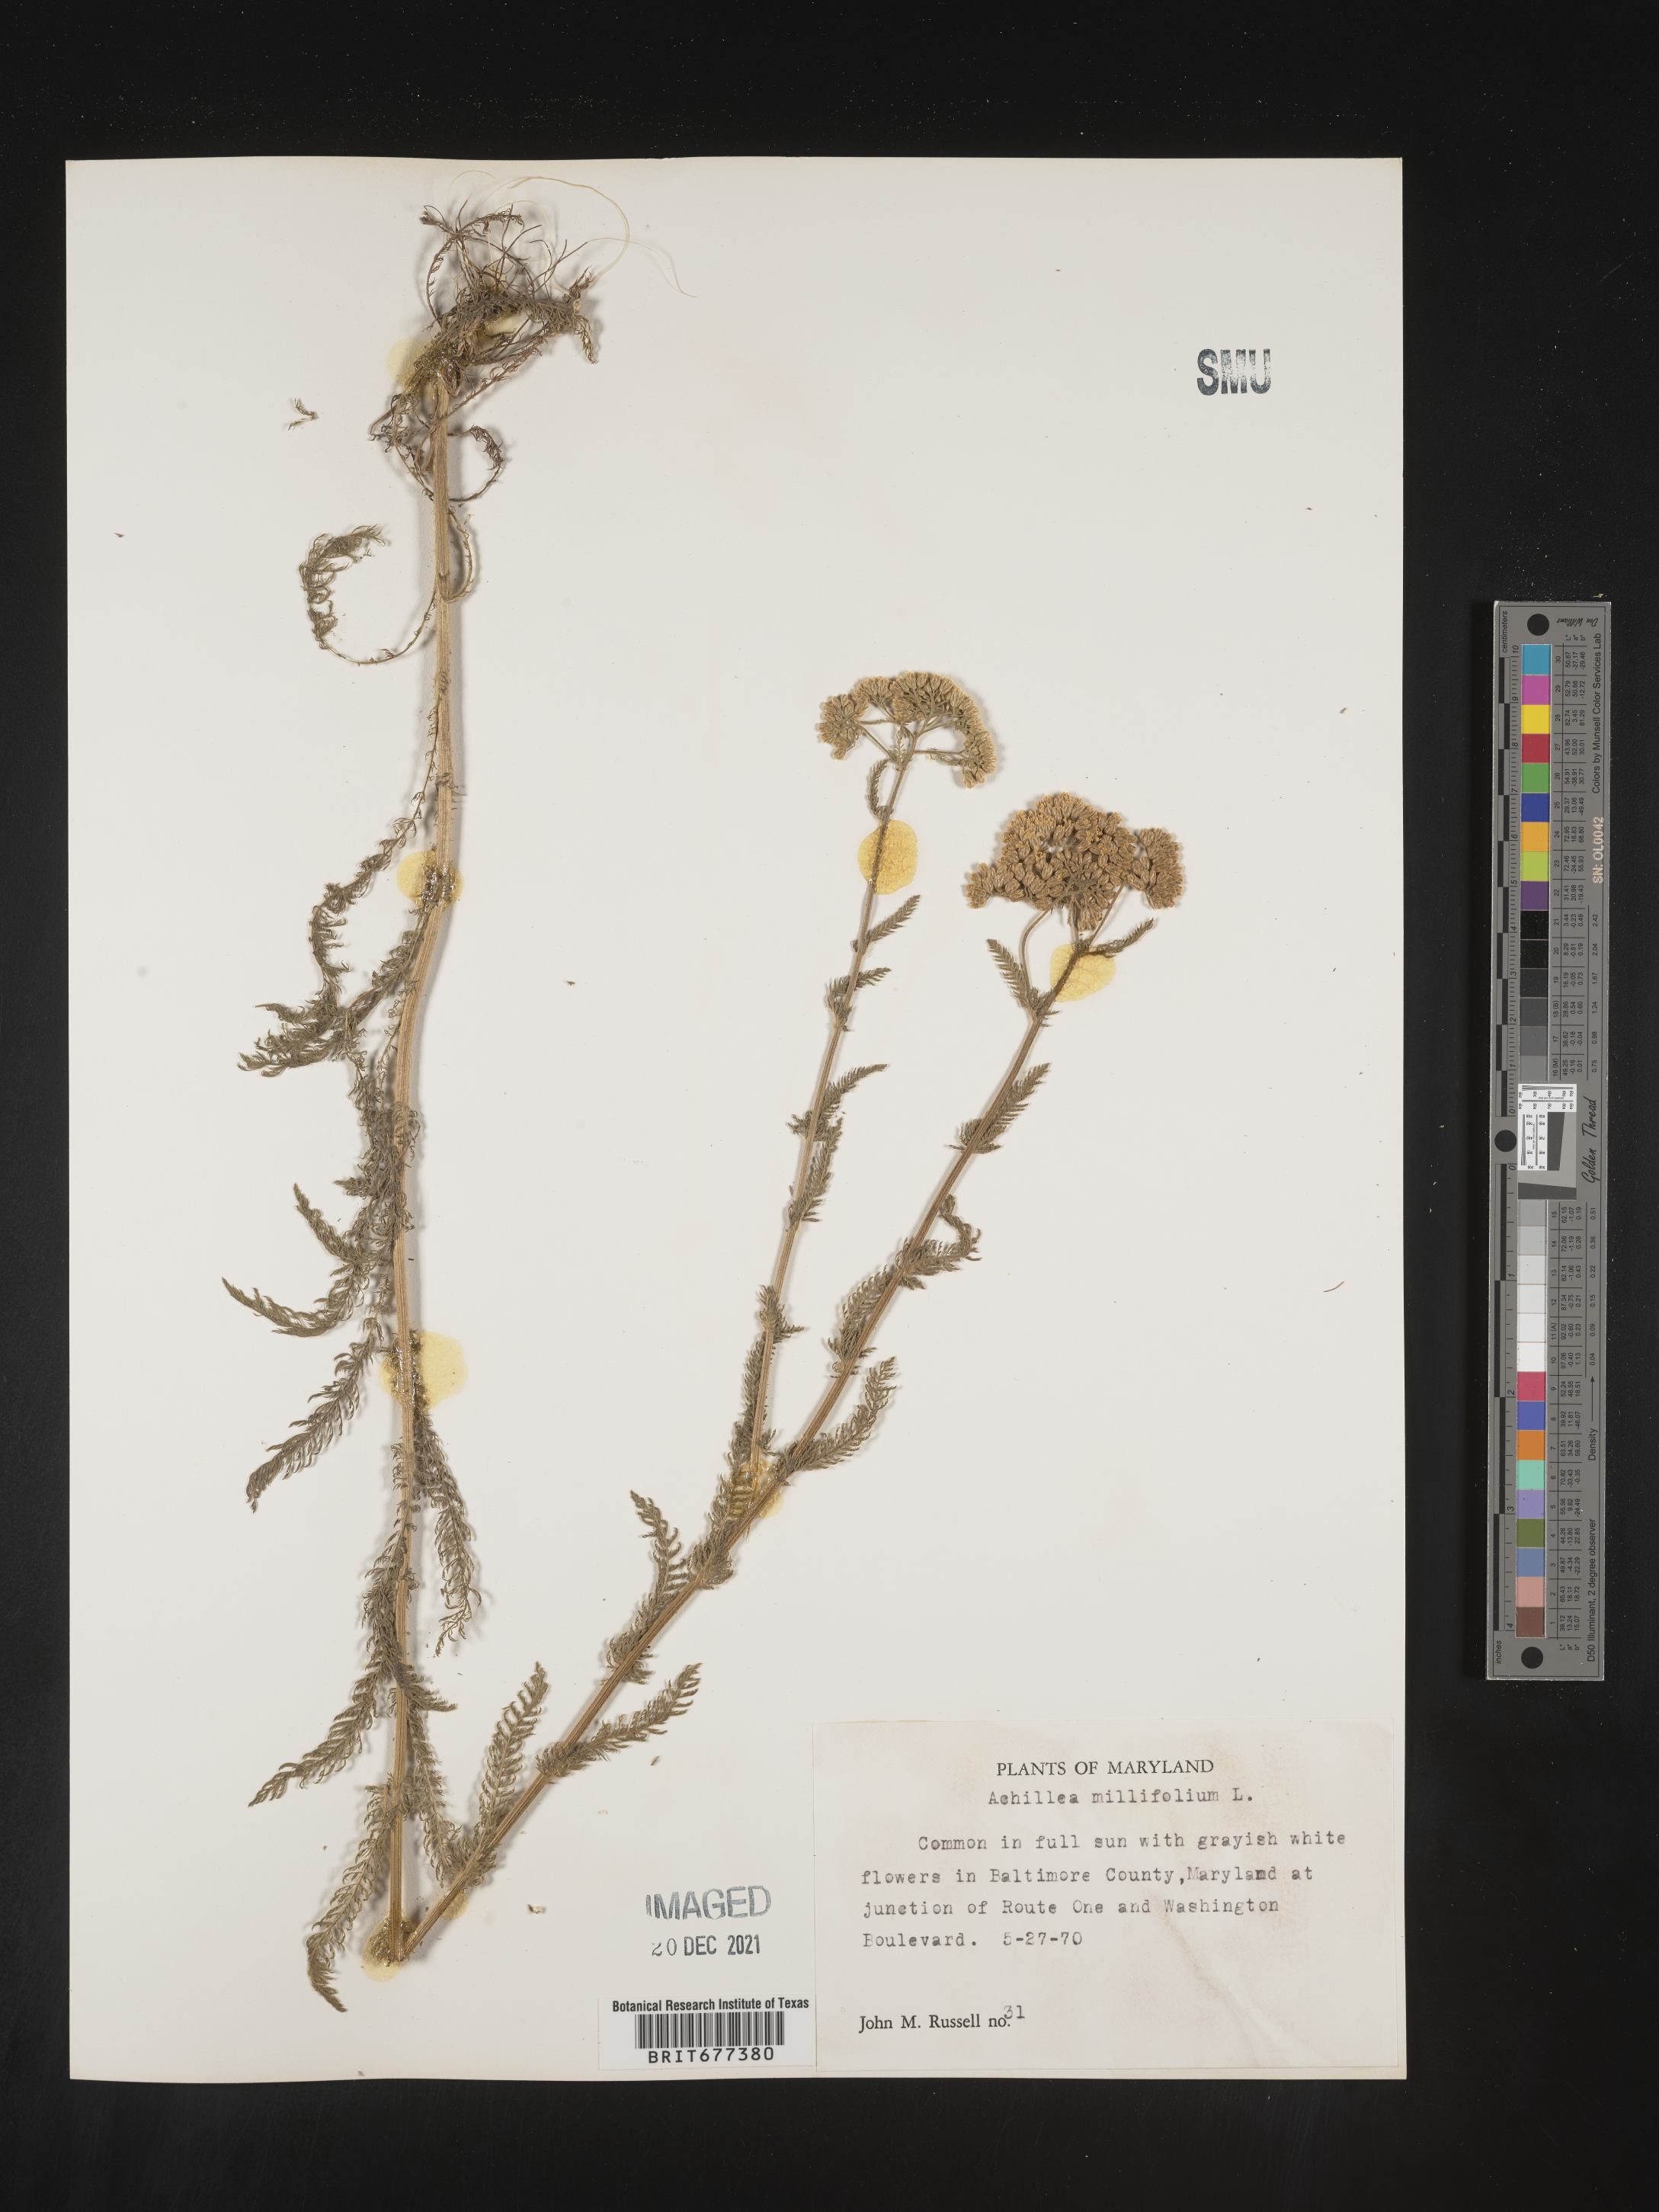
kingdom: Plantae
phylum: Tracheophyta
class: Magnoliopsida
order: Asterales
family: Asteraceae
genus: Achillea
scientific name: Achillea millefolium
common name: Yarrow
